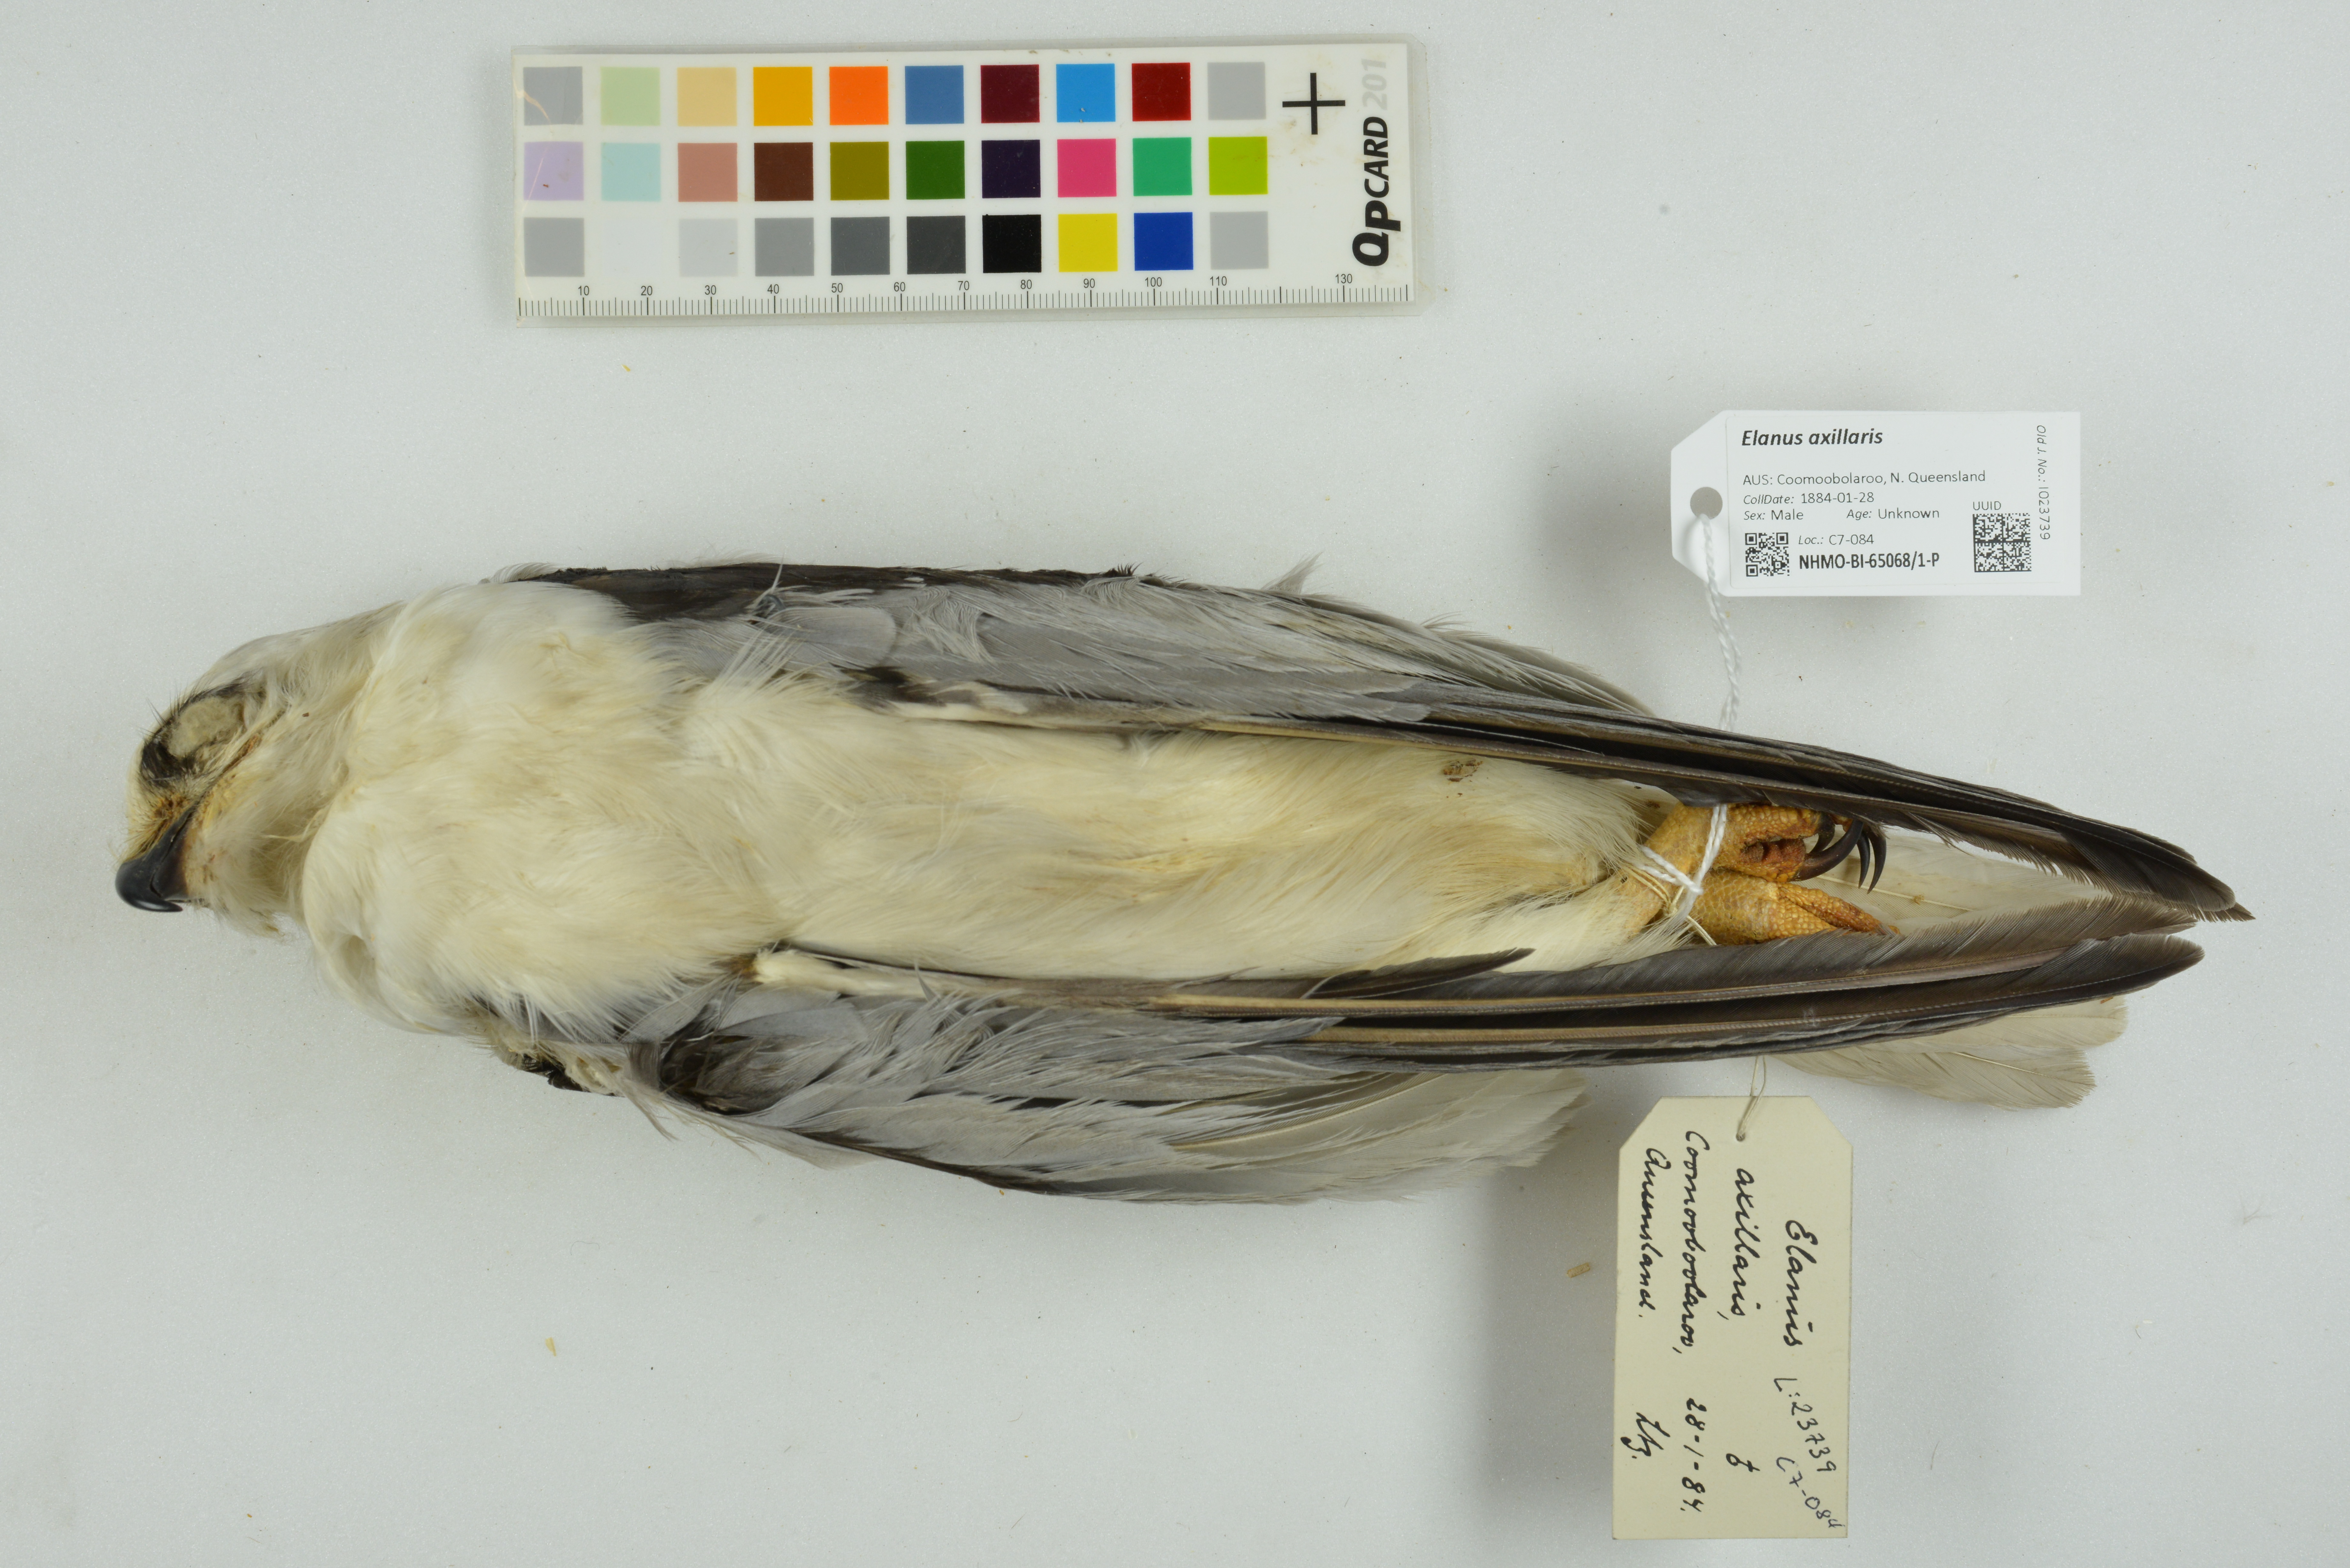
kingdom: Animalia
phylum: Chordata
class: Aves
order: Accipitriformes
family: Accipitridae
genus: Elanus
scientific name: Elanus axillaris
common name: Black-shouldered kite
